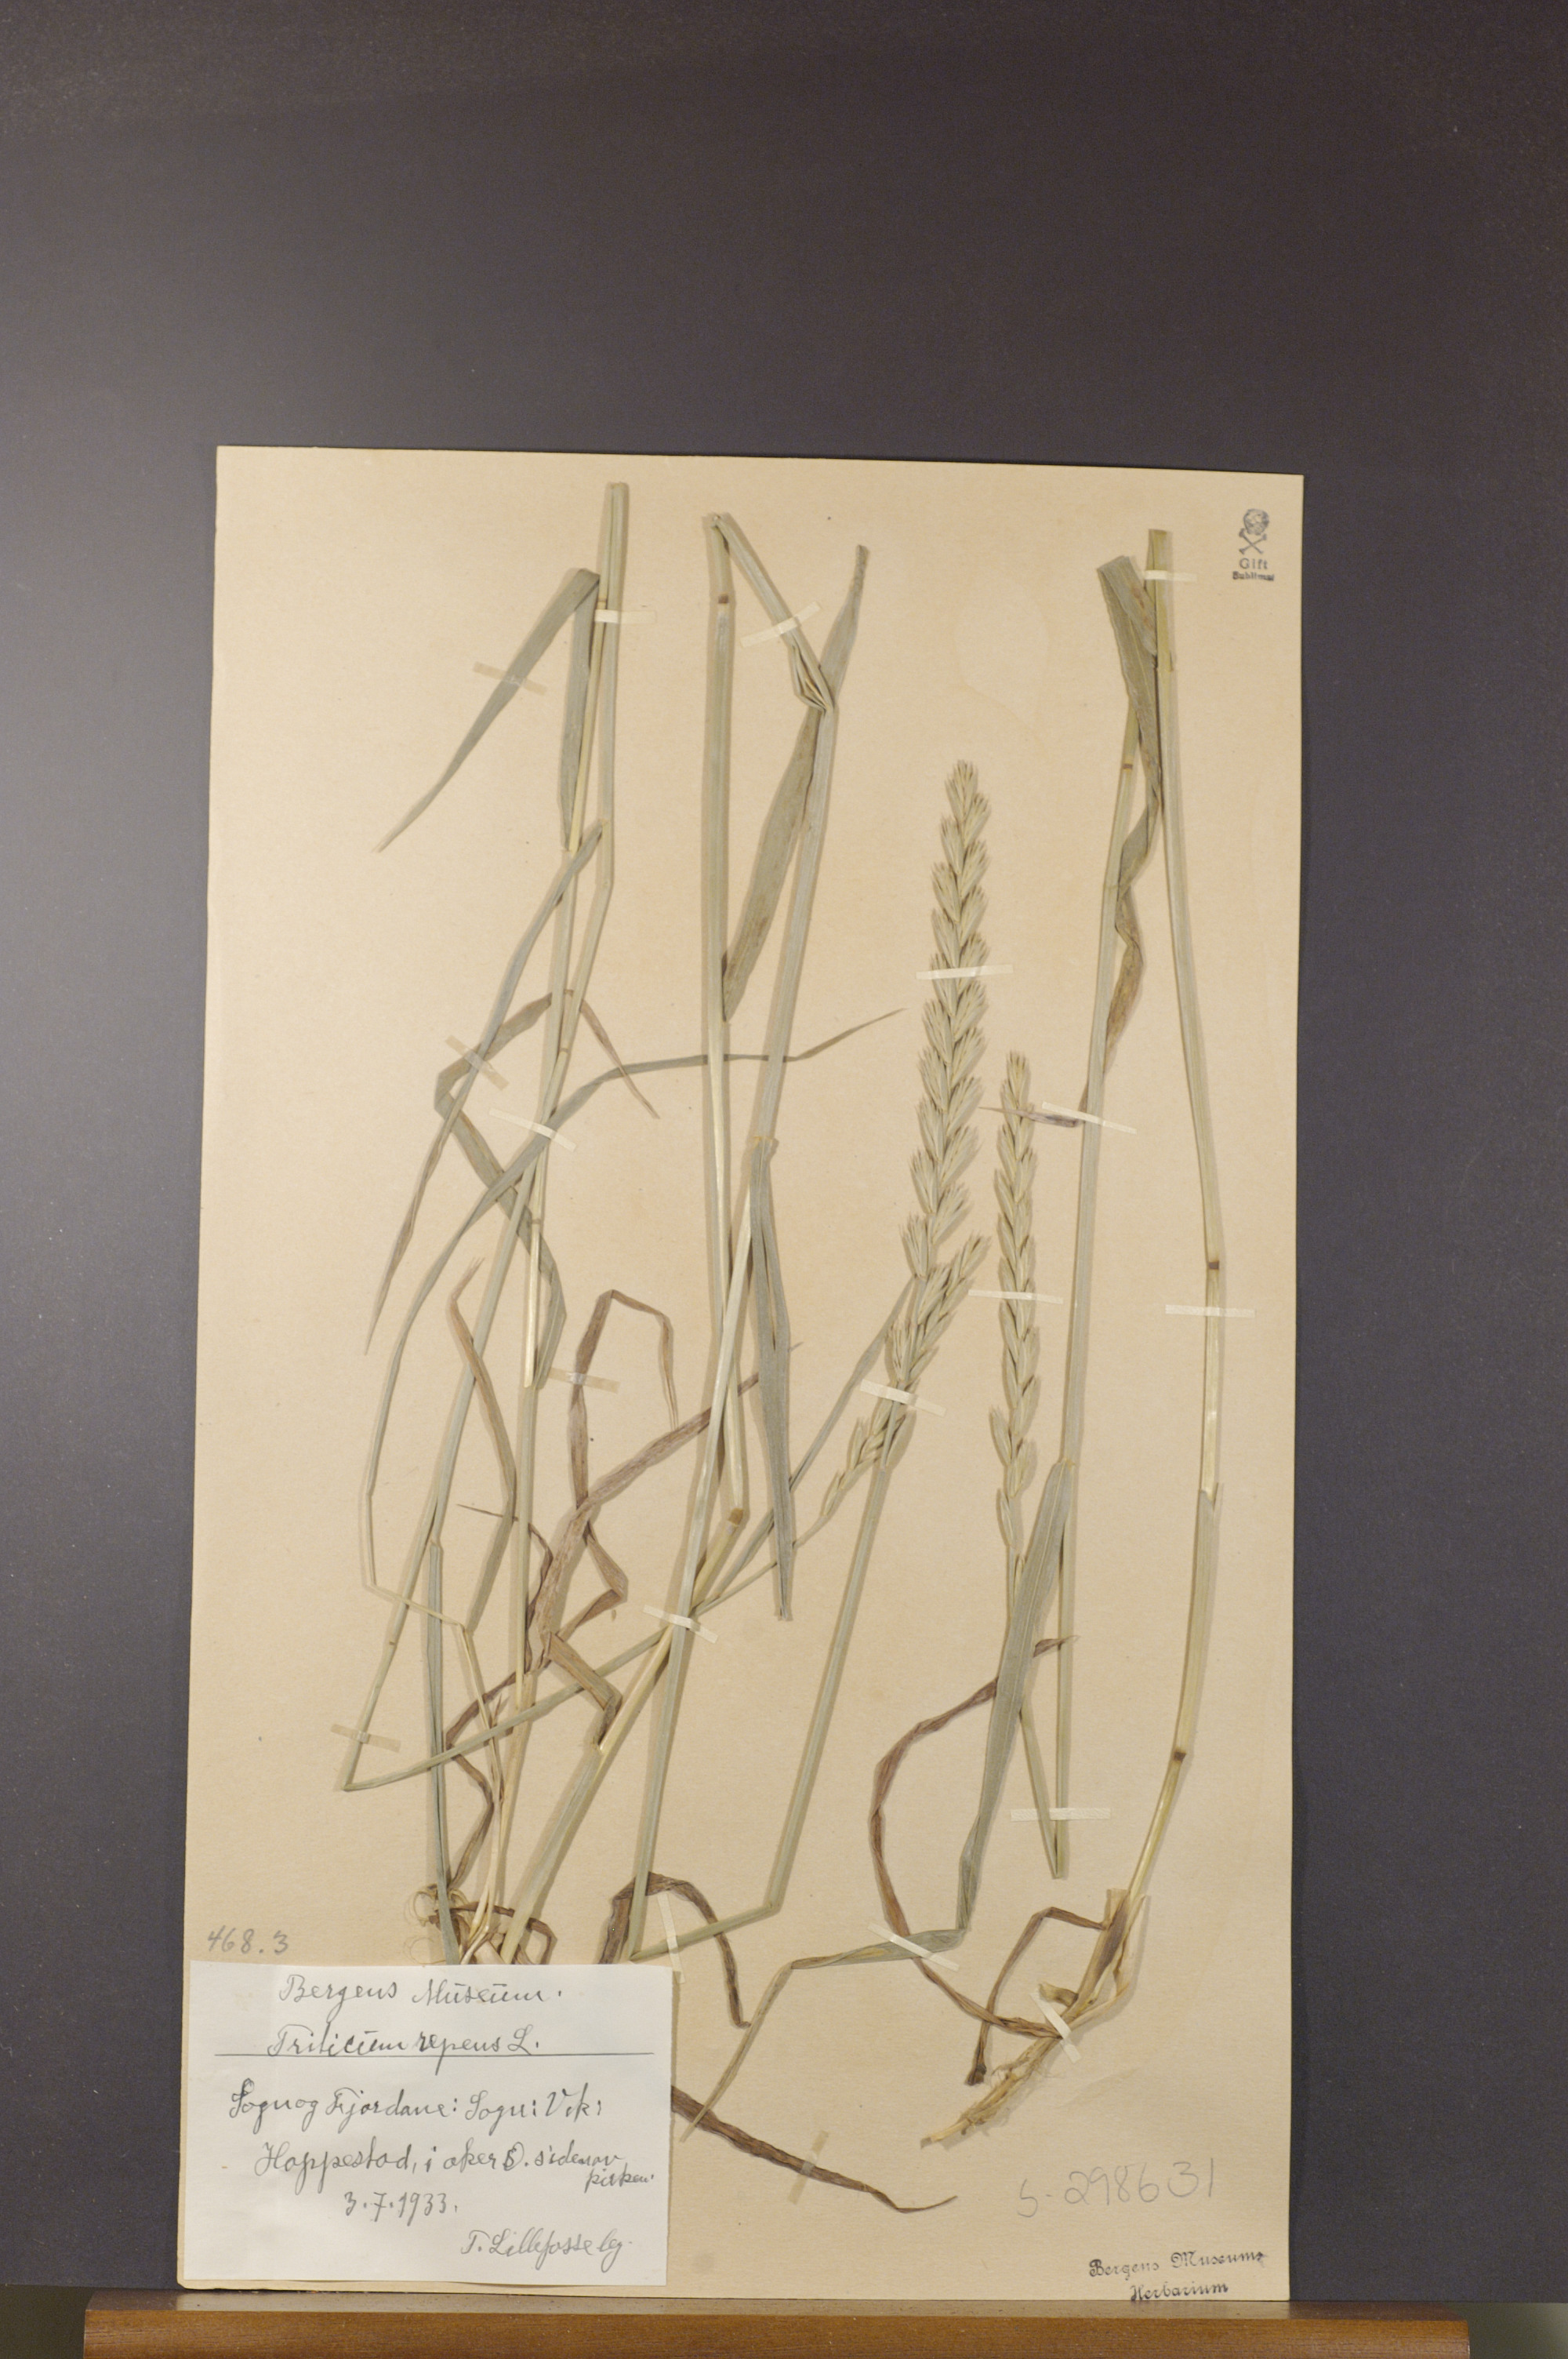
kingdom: Plantae
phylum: Tracheophyta
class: Liliopsida
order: Poales
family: Poaceae
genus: Elymus
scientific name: Elymus repens
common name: Quackgrass
